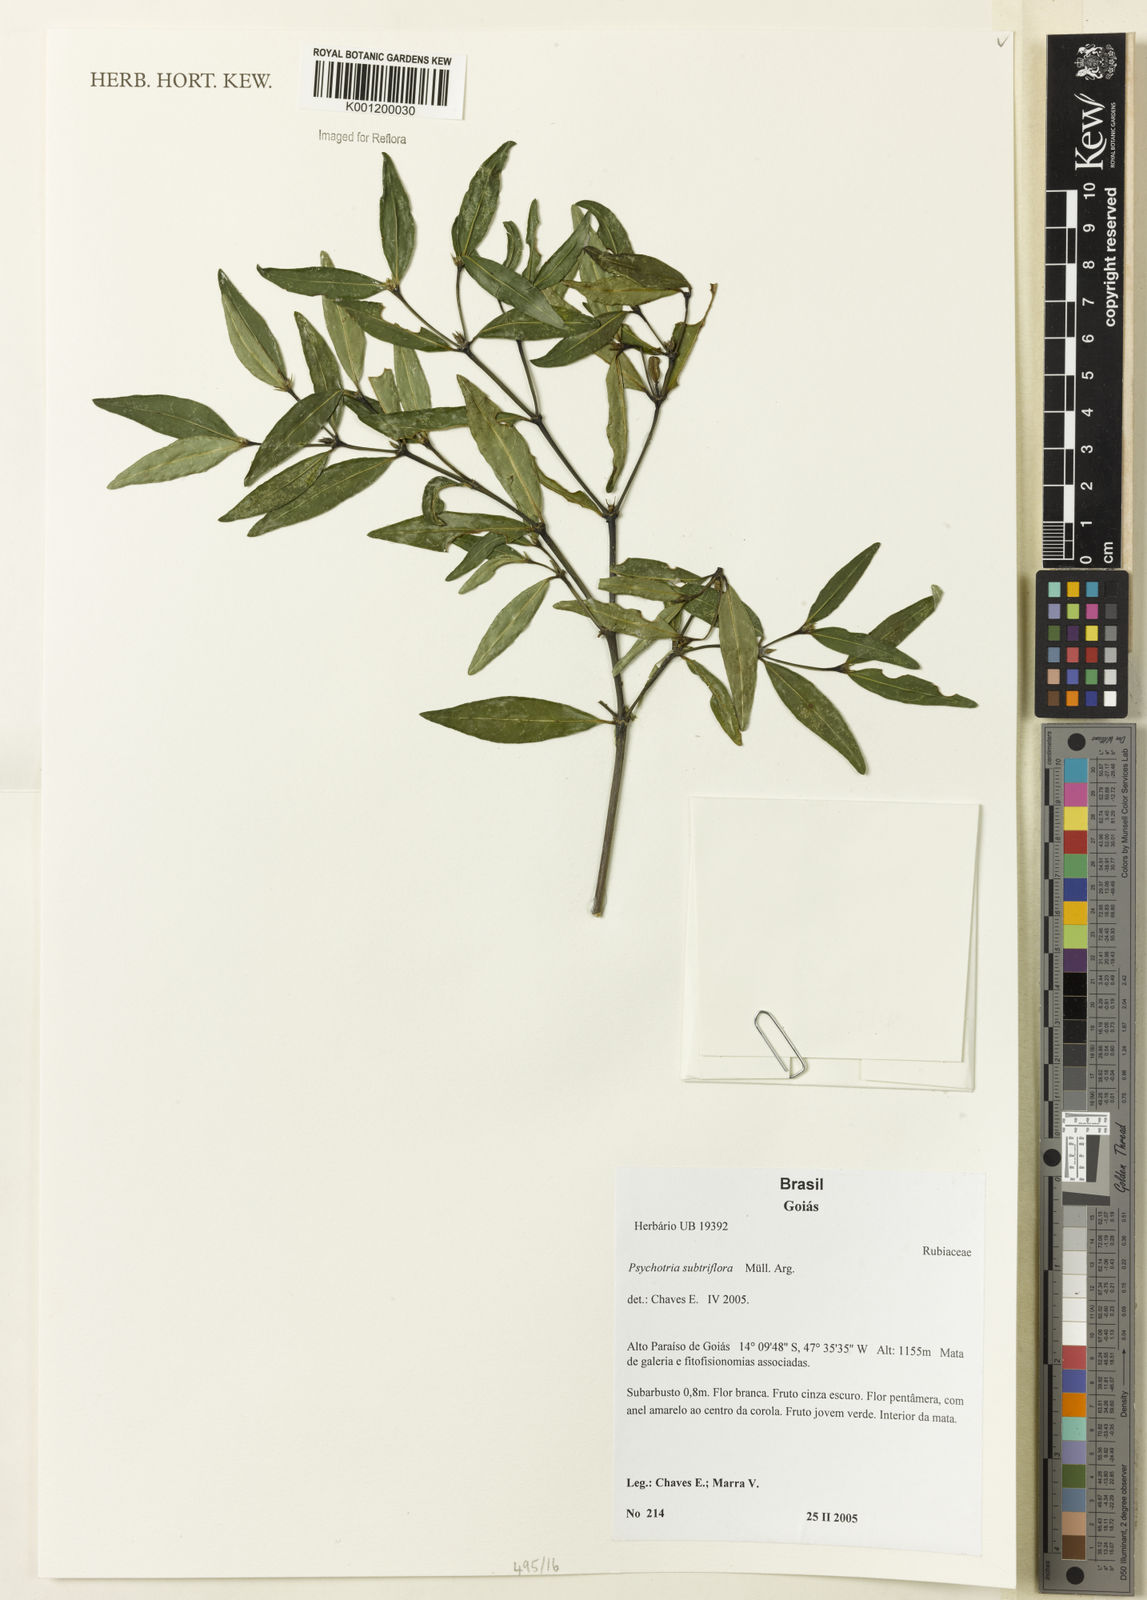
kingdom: Plantae
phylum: Tracheophyta
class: Magnoliopsida
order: Gentianales
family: Rubiaceae
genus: Psychotria
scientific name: Psychotria
